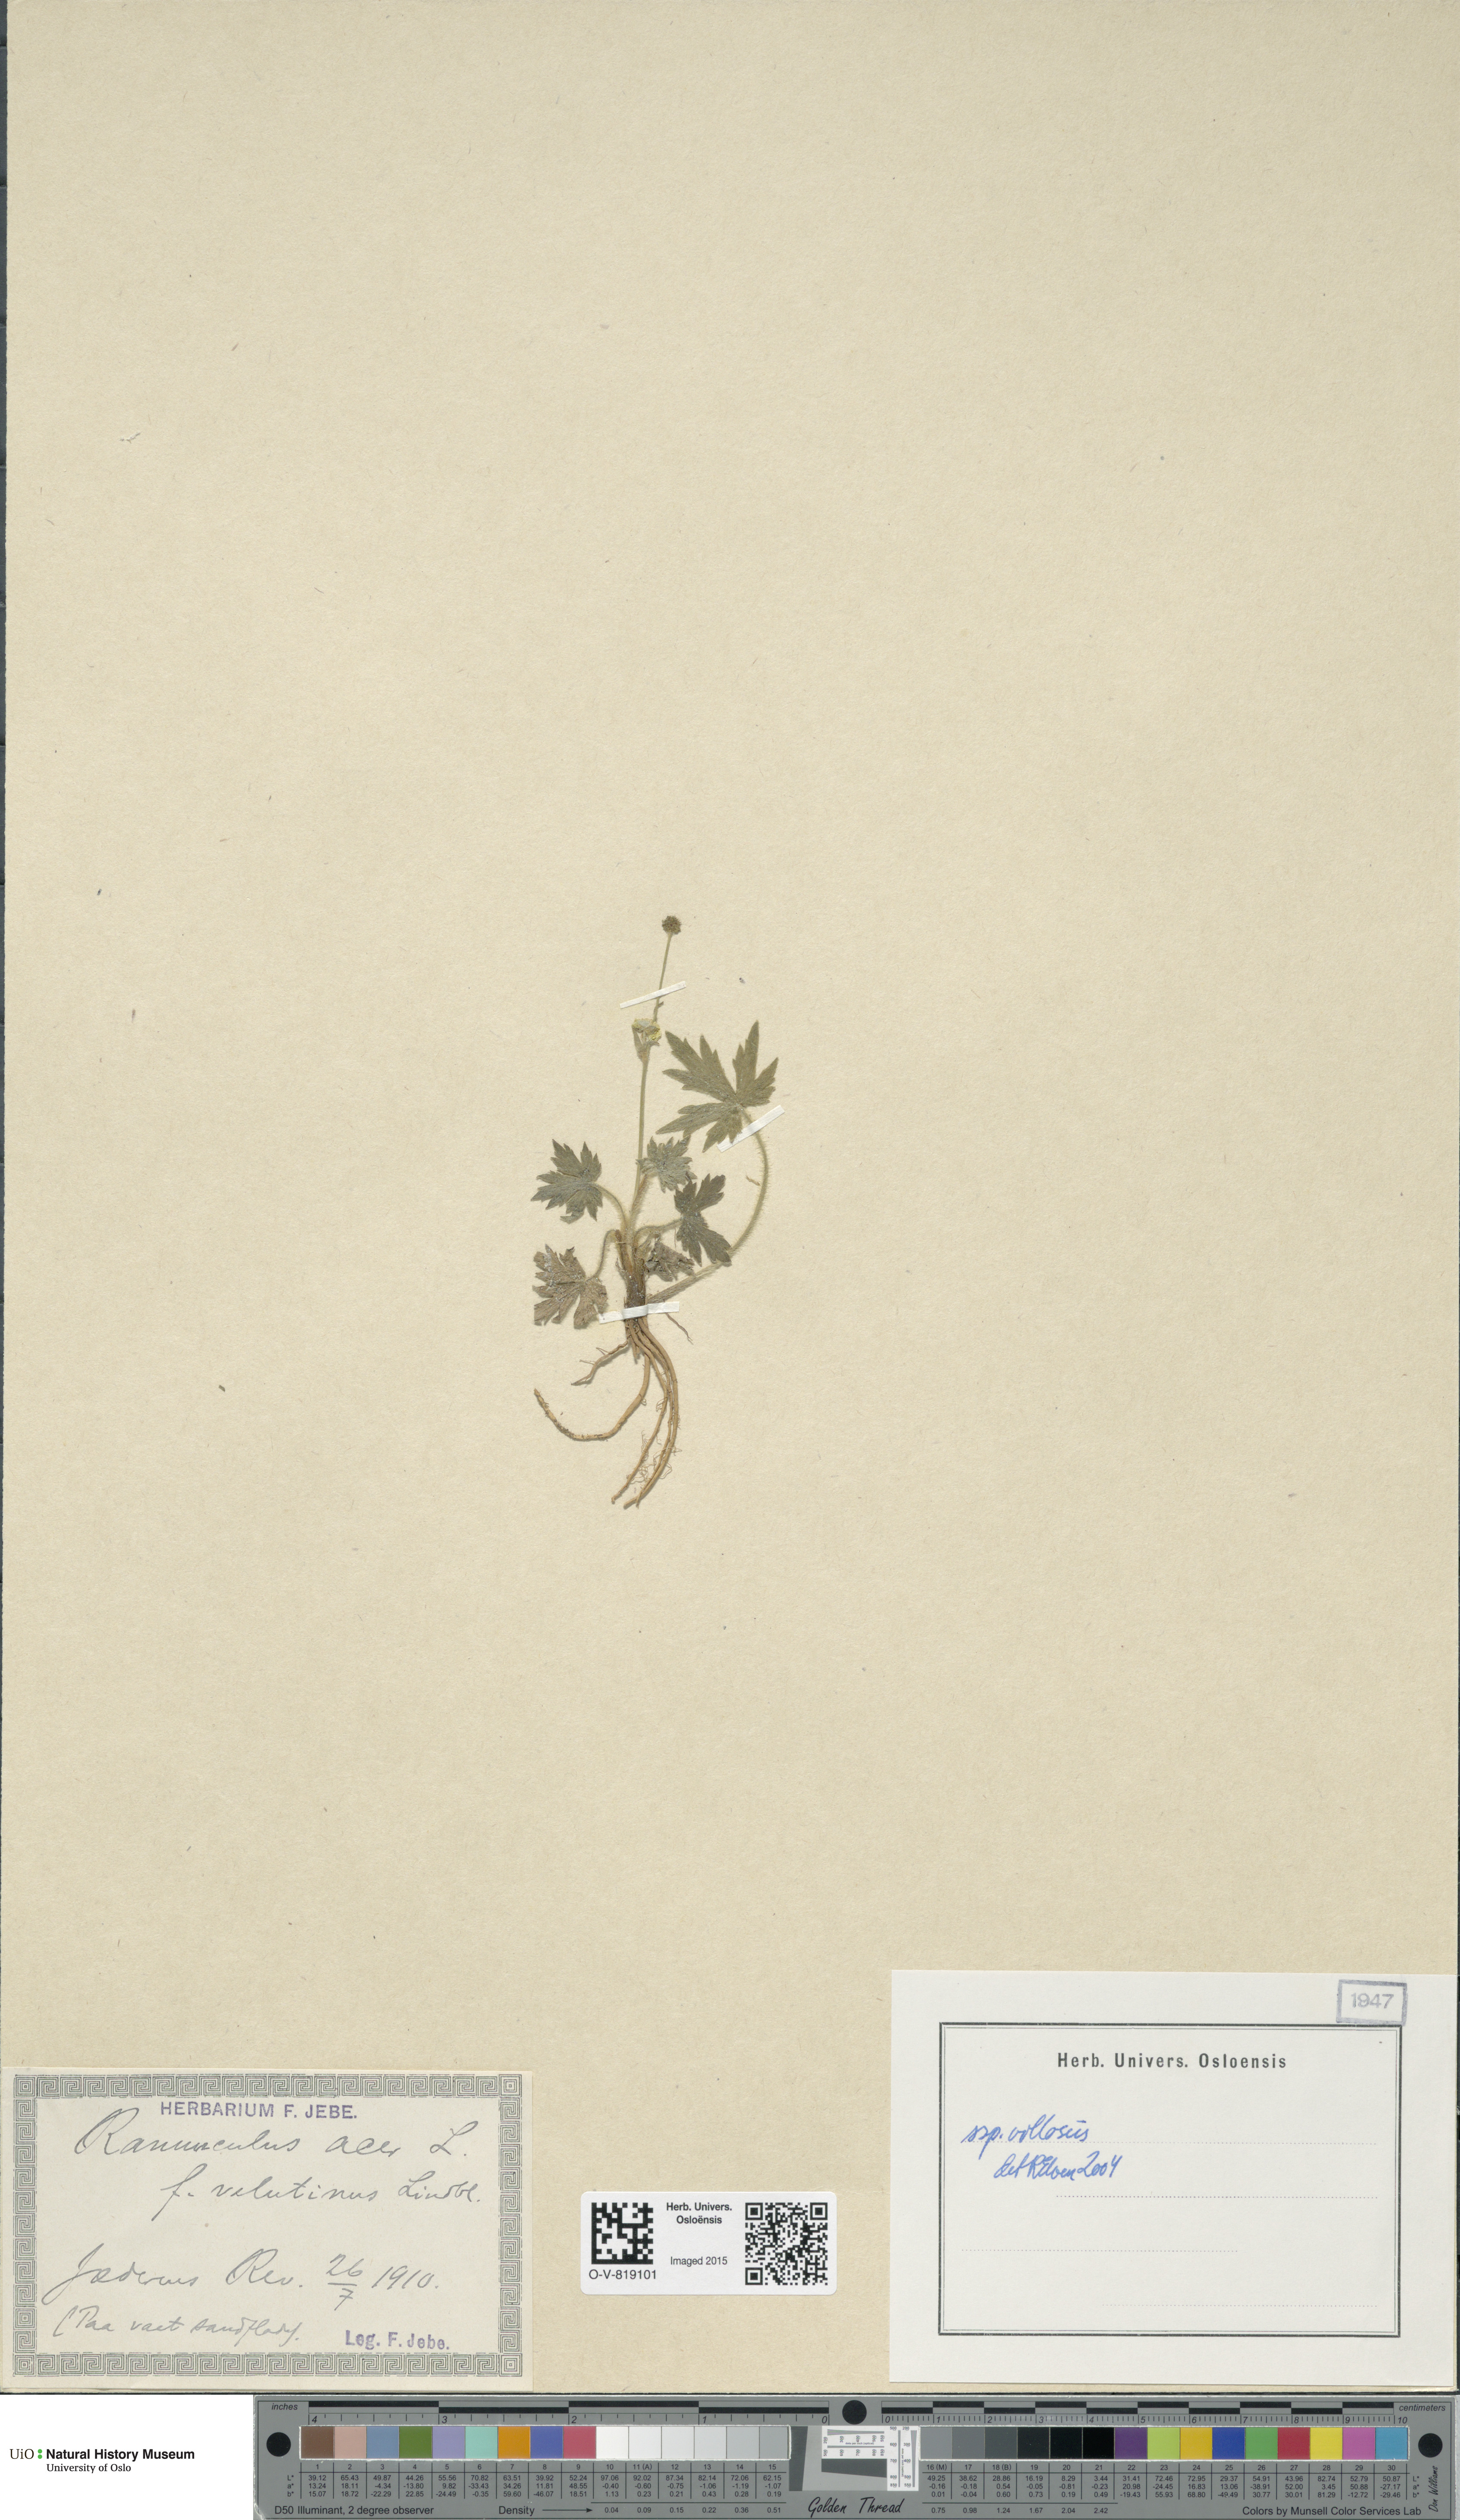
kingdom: Plantae
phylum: Tracheophyta
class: Magnoliopsida
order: Ranunculales
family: Ranunculaceae
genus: Ranunculus
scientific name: Ranunculus propinquus
